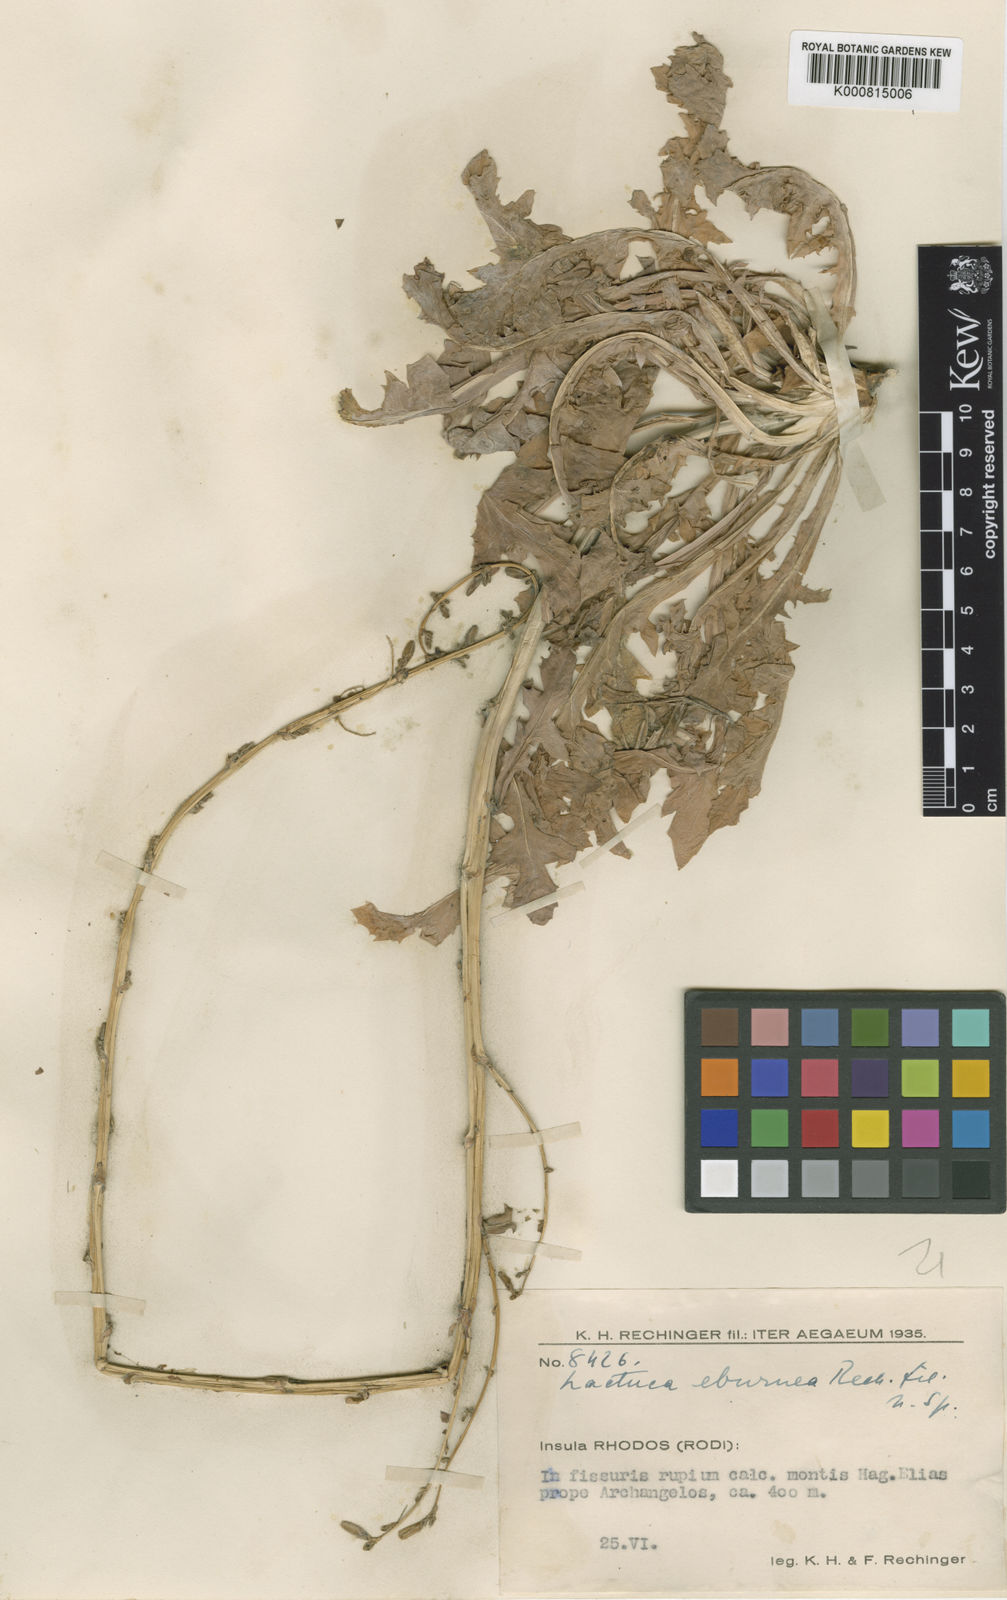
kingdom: Plantae
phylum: Tracheophyta
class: Magnoliopsida
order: Asterales
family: Asteraceae
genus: Lactuca
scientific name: Lactuca acanthifolia
